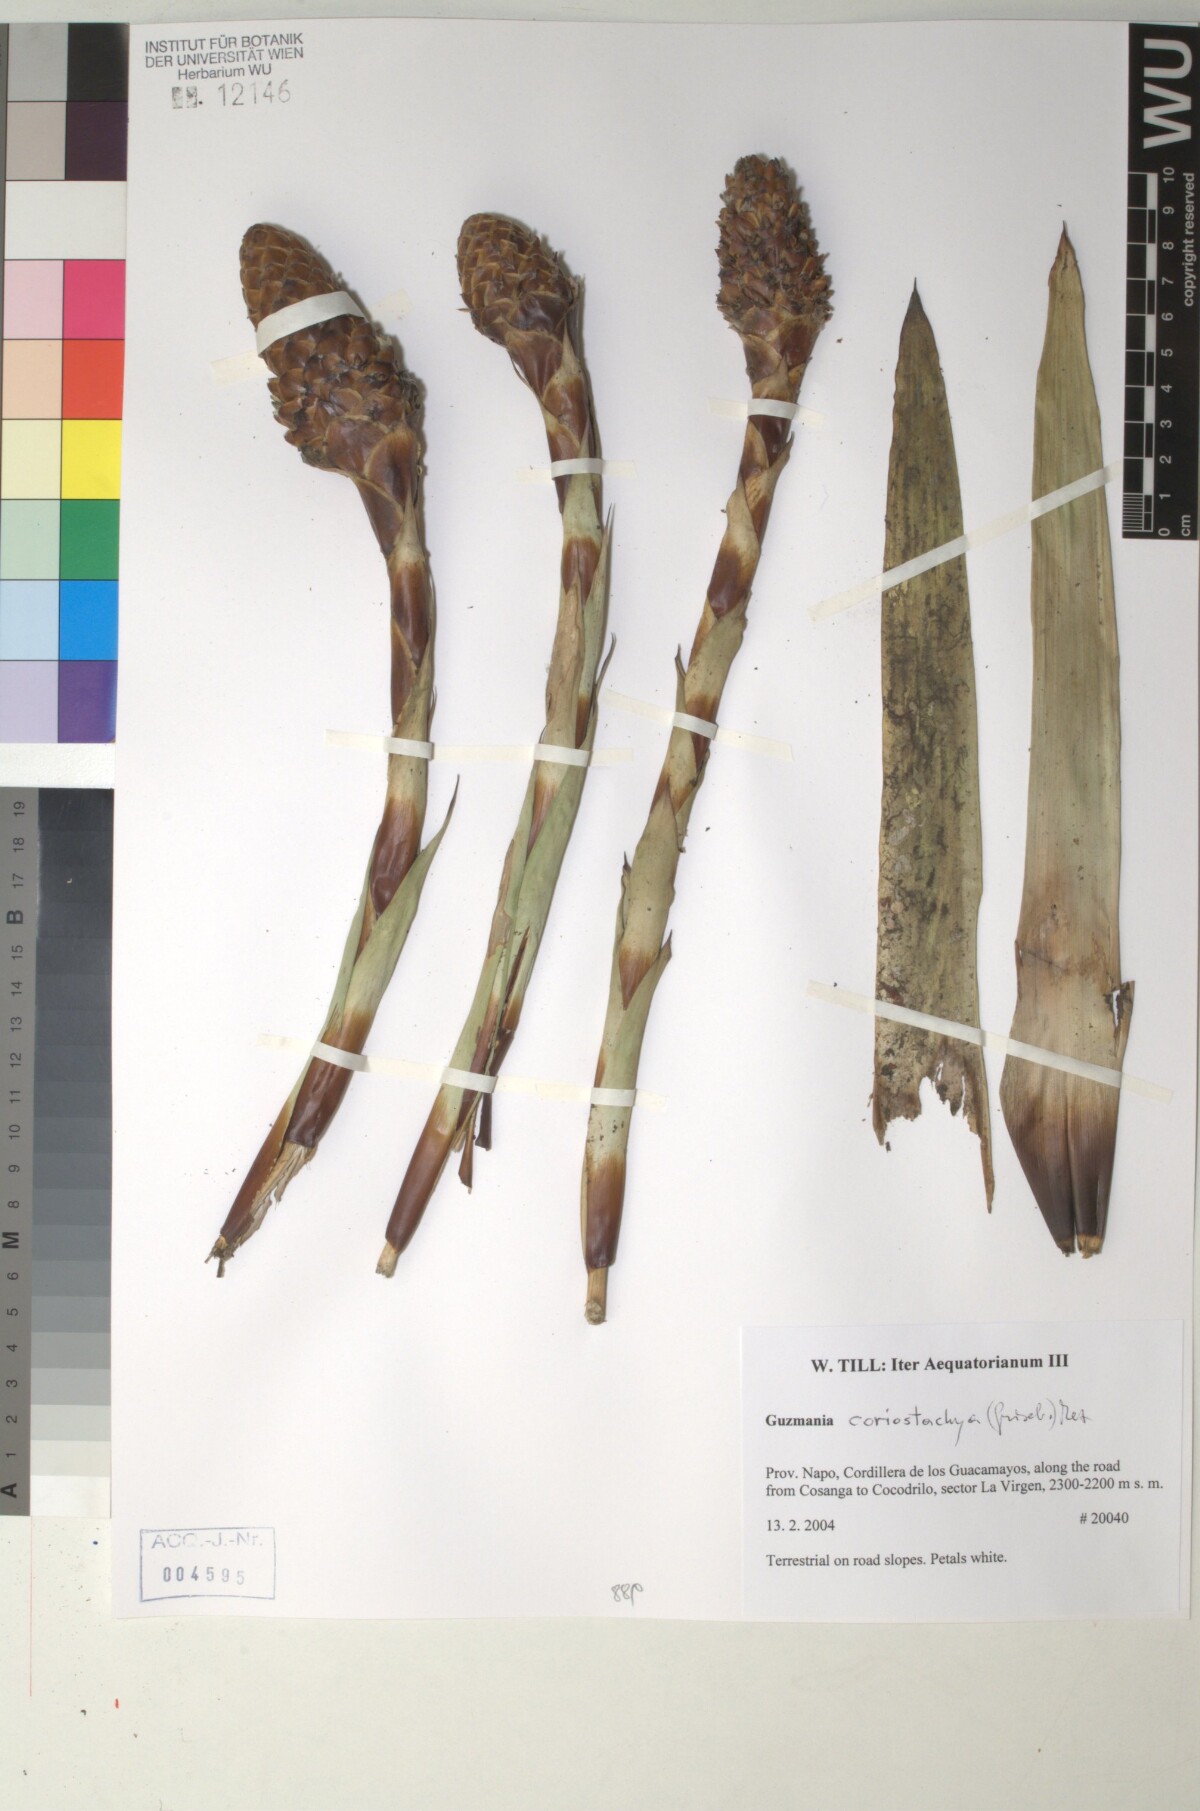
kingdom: Plantae
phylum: Tracheophyta
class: Liliopsida
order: Poales
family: Bromeliaceae
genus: Guzmania
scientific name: Guzmania coriostachya
